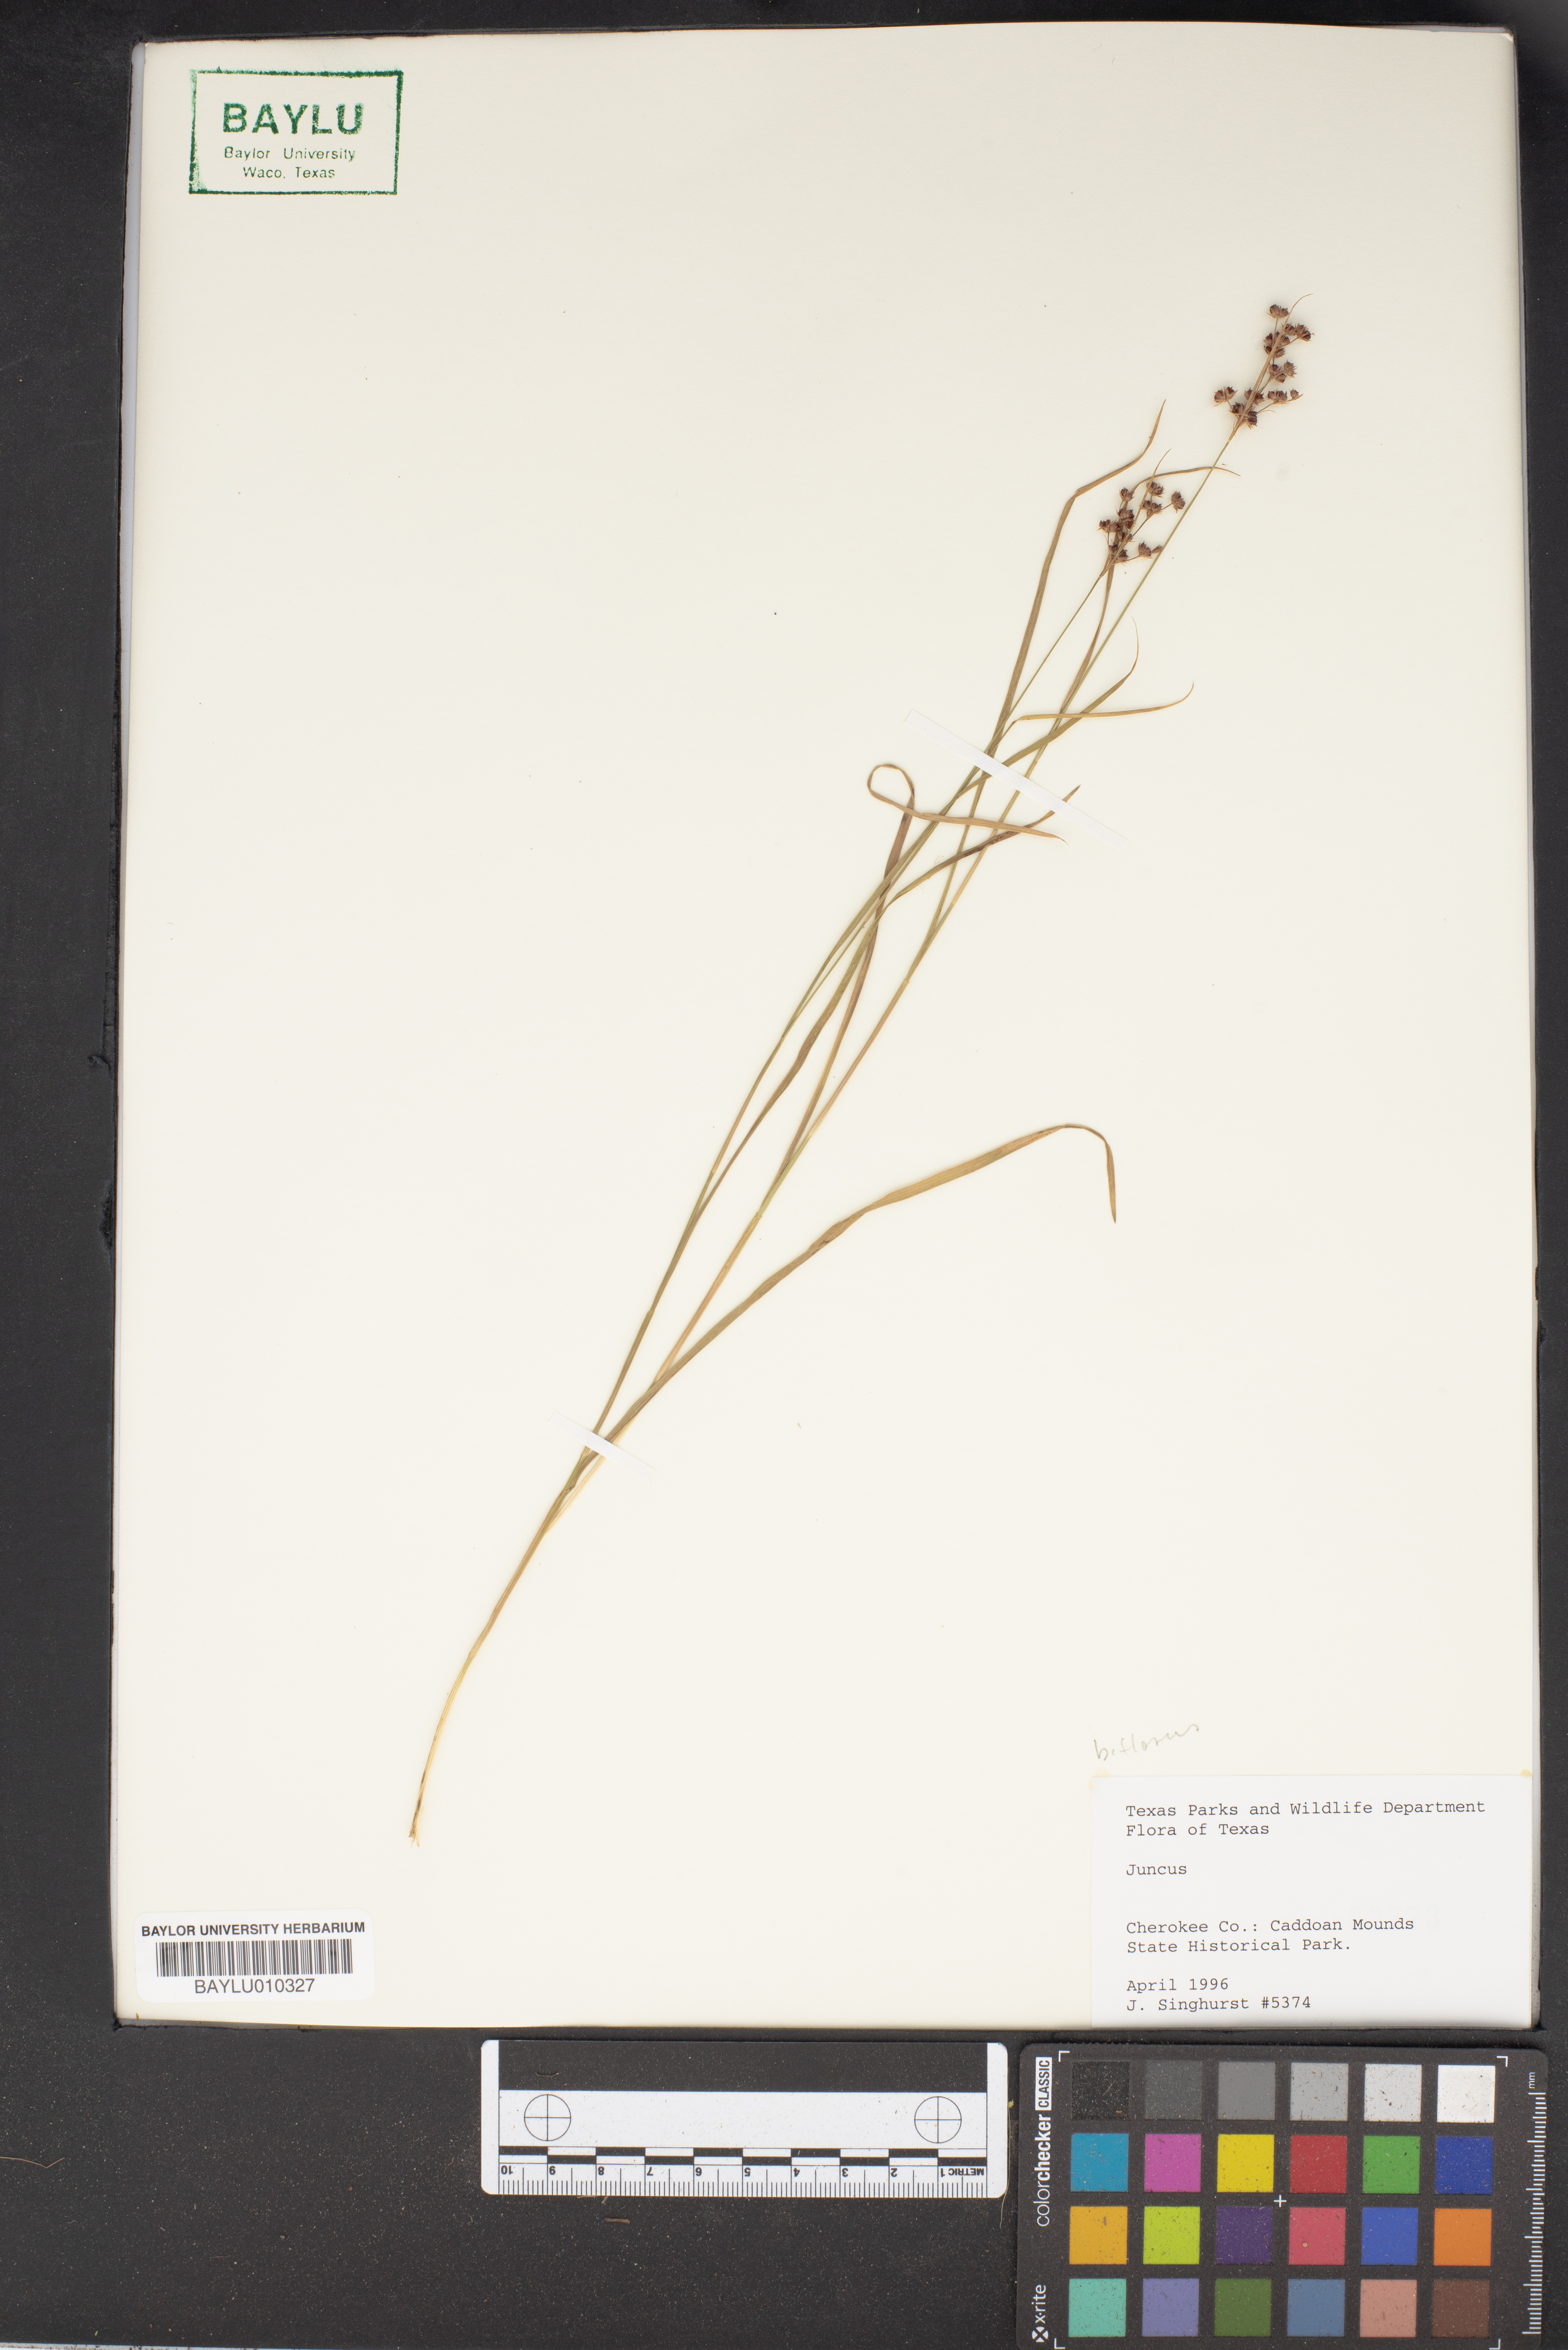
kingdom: Plantae
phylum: Tracheophyta
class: Liliopsida
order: Poales
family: Juncaceae
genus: Juncus
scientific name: Juncus
